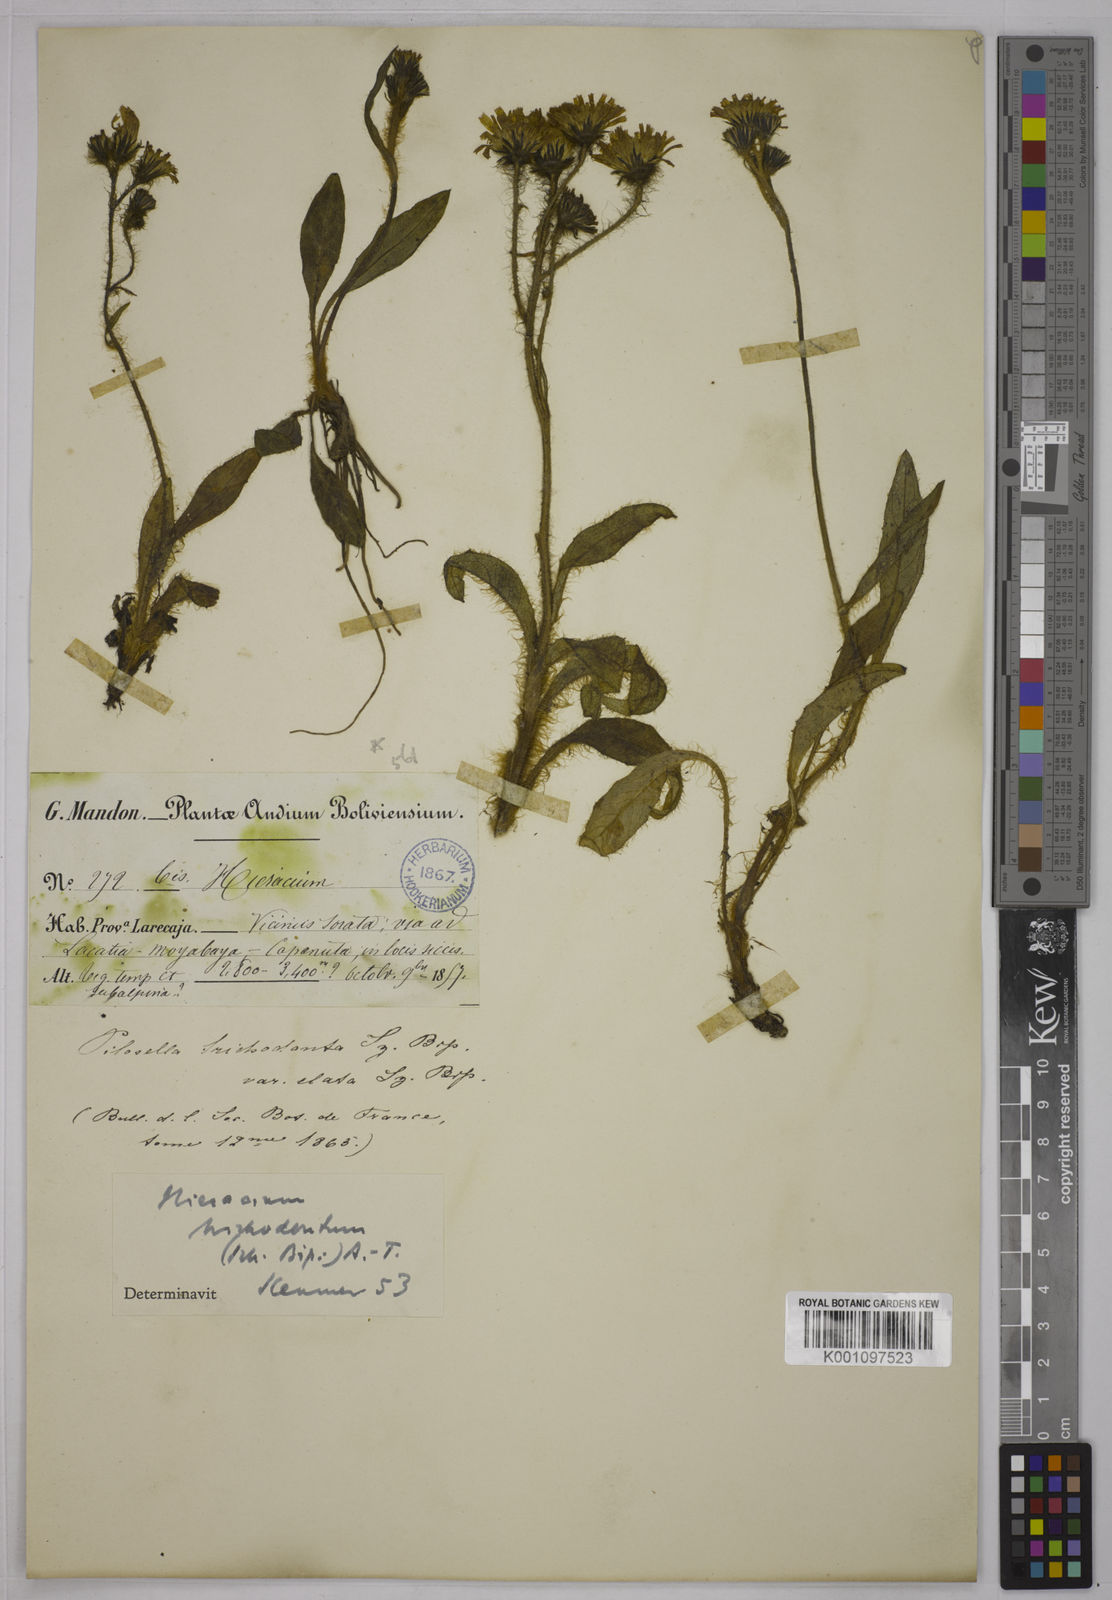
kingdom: Plantae
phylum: Tracheophyta
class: Magnoliopsida
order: Asterales
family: Asteraceae
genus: Hieracium
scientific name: Hieracium
